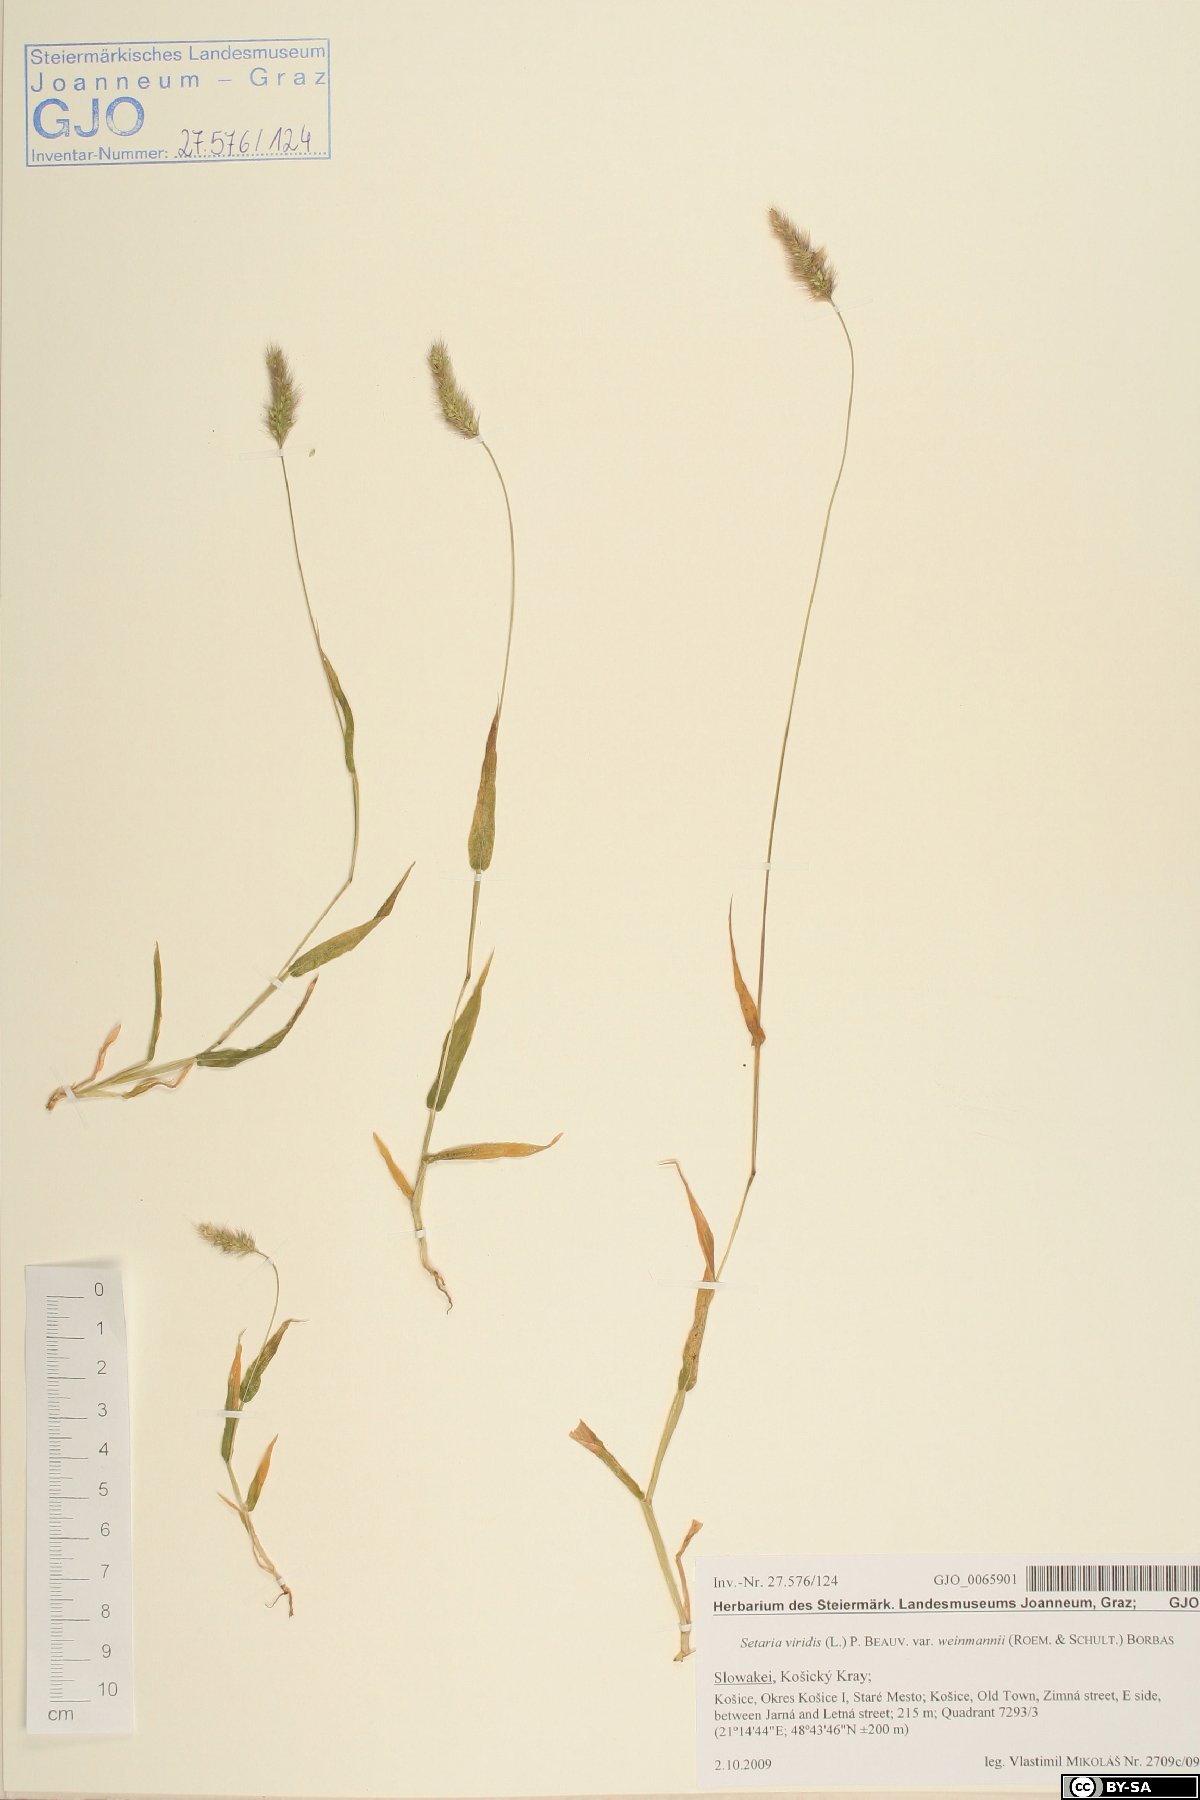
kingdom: Plantae
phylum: Tracheophyta
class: Liliopsida
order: Poales
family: Poaceae
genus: Setaria
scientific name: Setaria viridis
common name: Green bristlegrass
